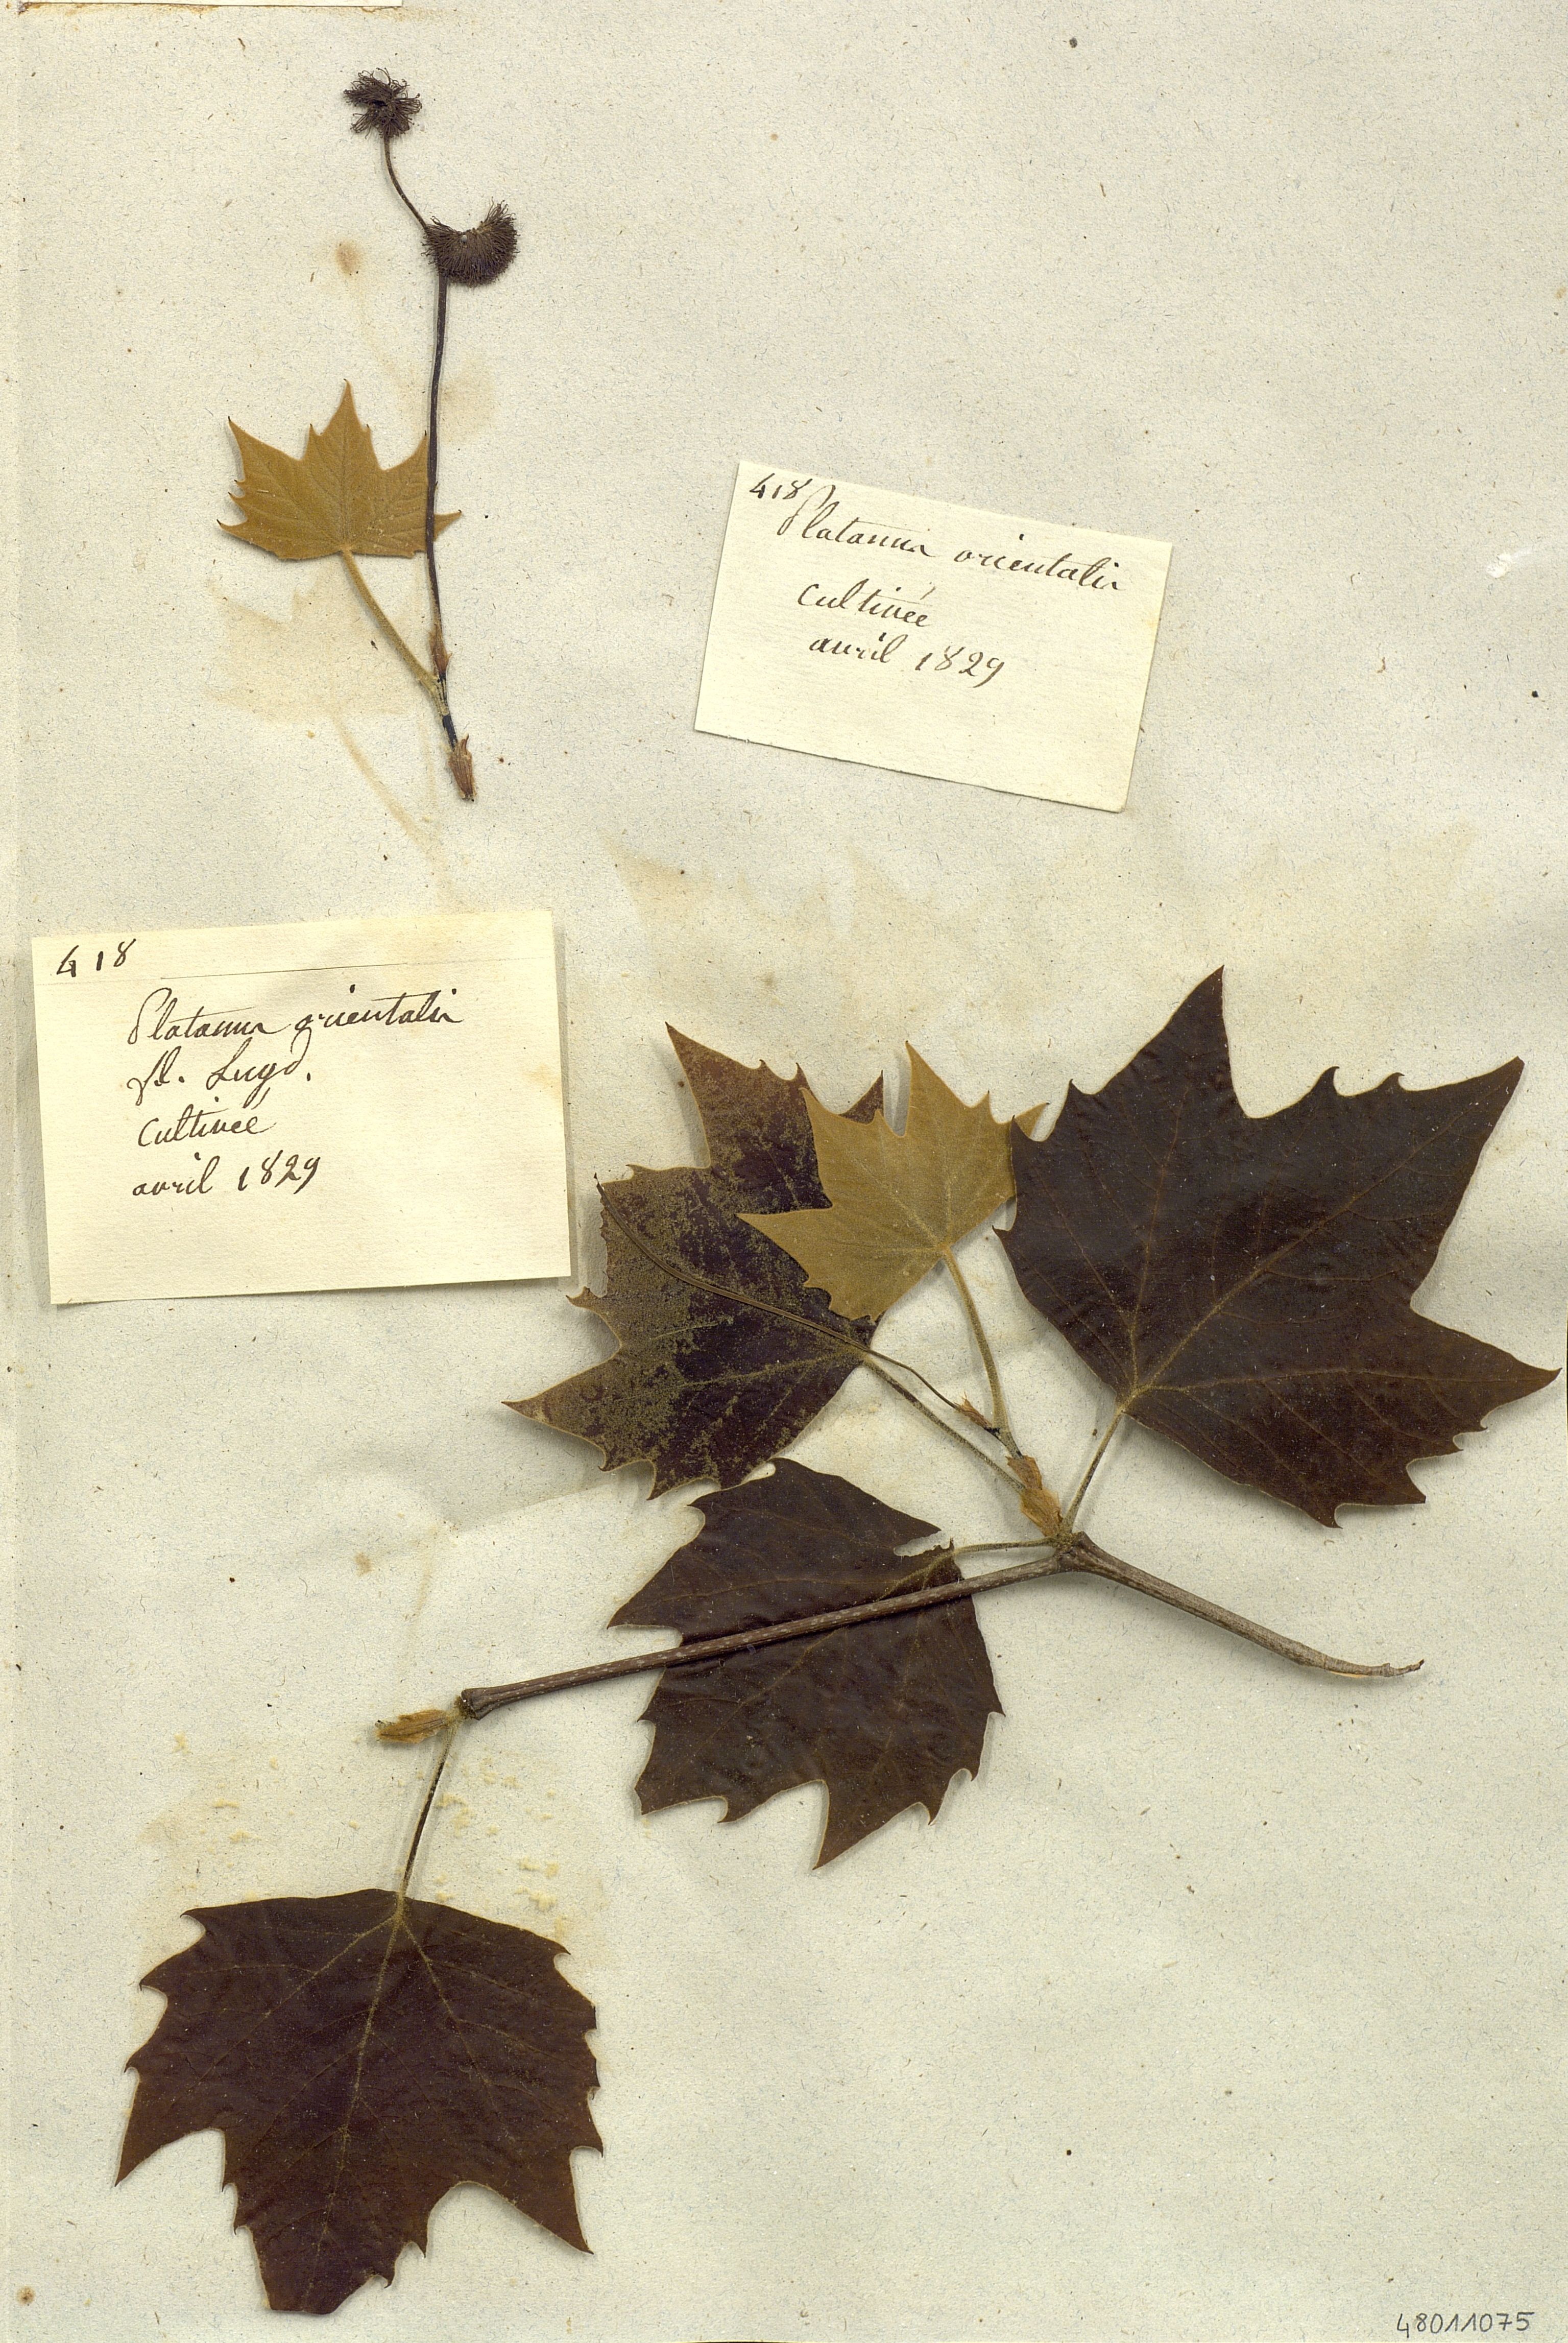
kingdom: Plantae
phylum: Tracheophyta
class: Magnoliopsida
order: Proteales
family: Platanaceae
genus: Platanus
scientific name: Platanus orientalis
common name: Oriental plane
